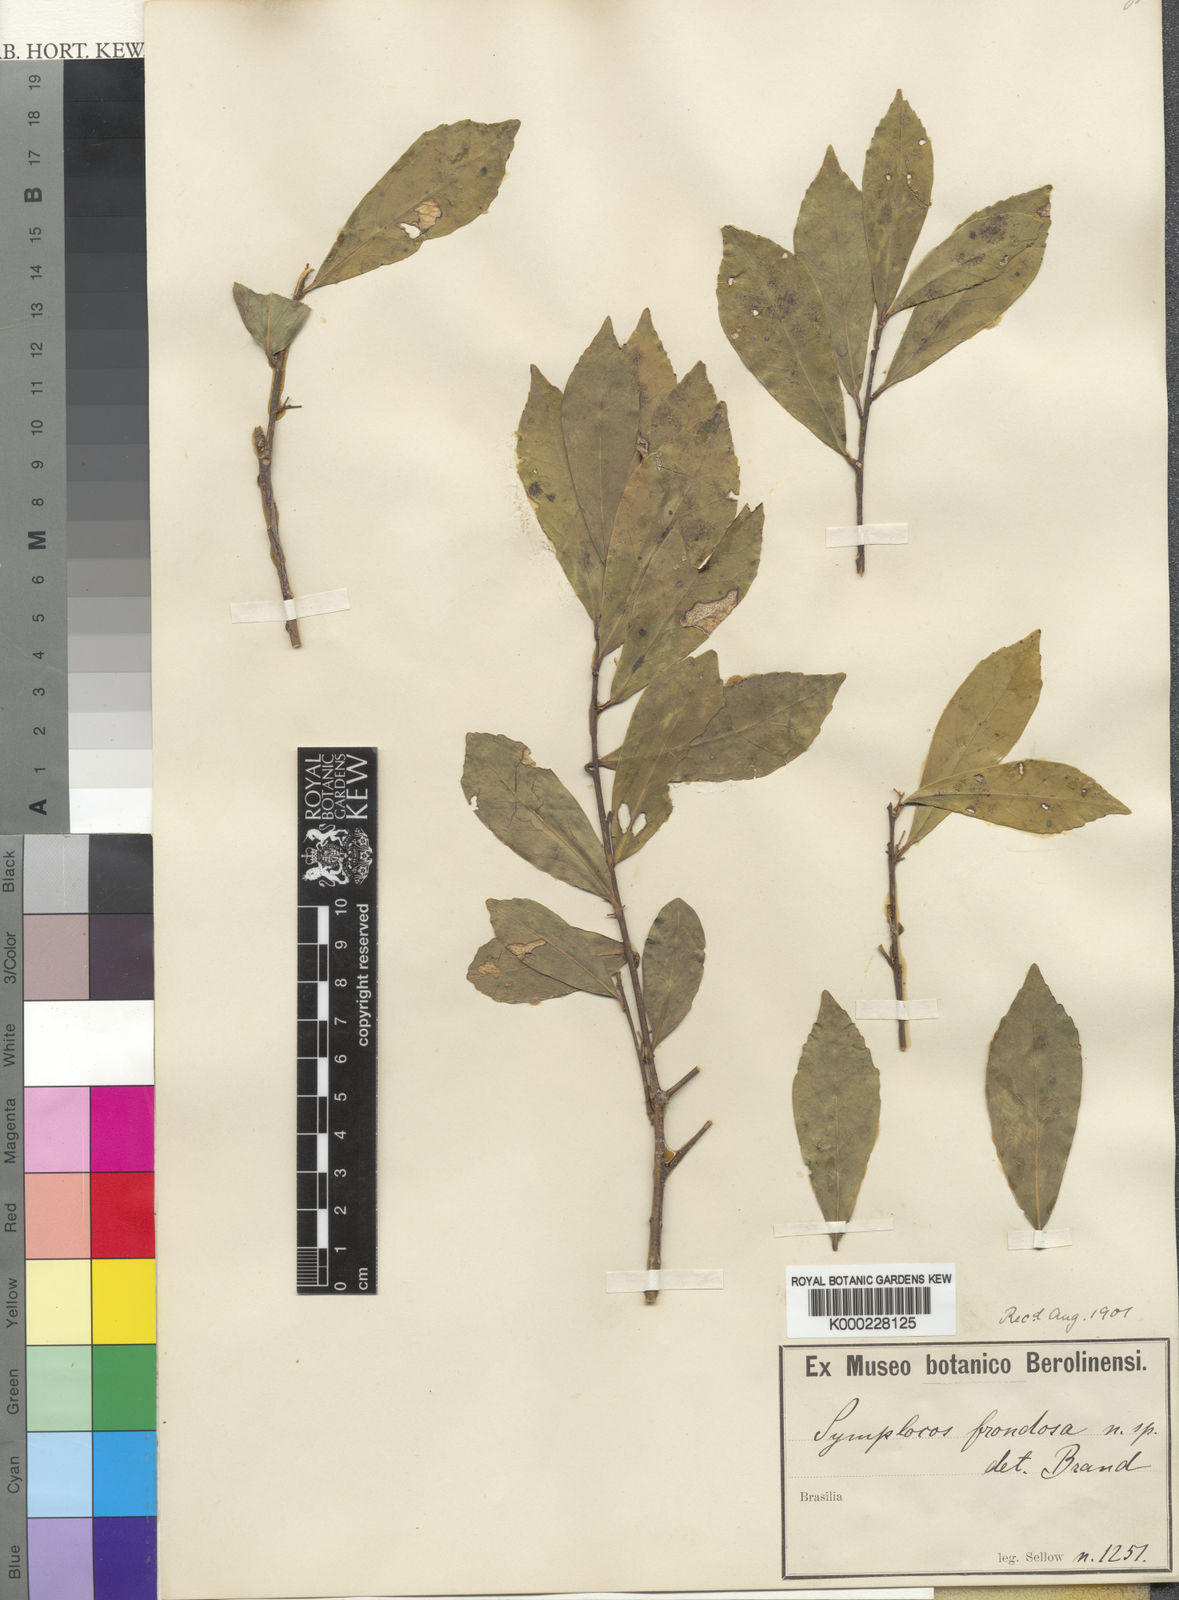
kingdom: Plantae
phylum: Tracheophyta
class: Magnoliopsida
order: Ericales
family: Symplocaceae
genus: Symplocos
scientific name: Symplocos tetrandra
